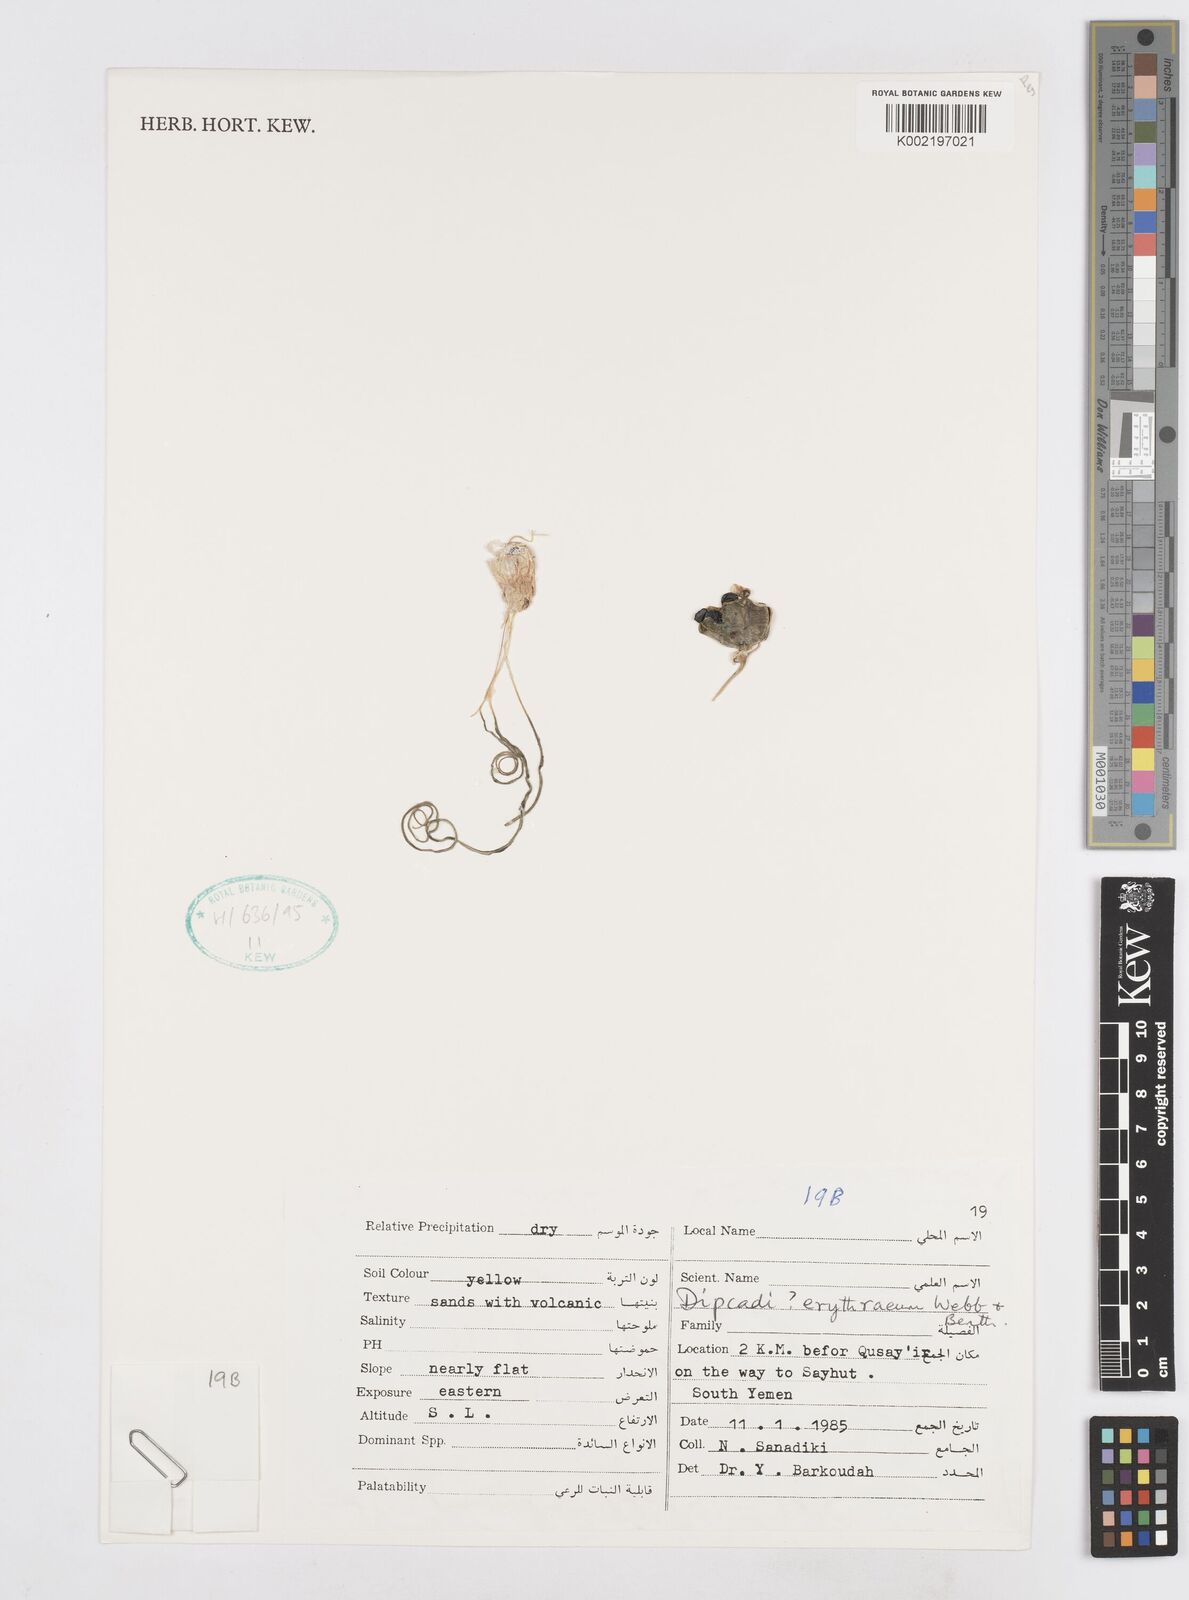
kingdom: Plantae
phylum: Tracheophyta
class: Liliopsida
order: Asparagales
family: Asparagaceae
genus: Dipcadi
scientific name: Dipcadi erythraeum
